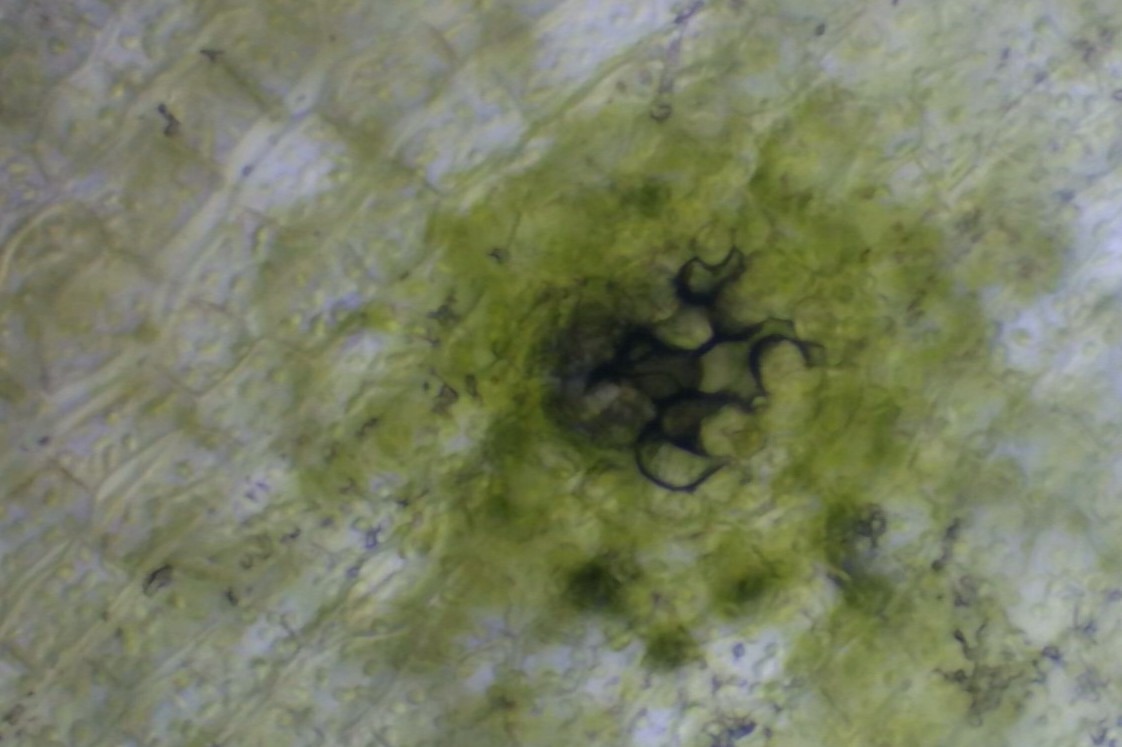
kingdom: Plantae
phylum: Bryophyta
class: Bryopsida
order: Orthotrichales
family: Orthotrichaceae
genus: Orthotrichum
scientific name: Orthotrichum anomalum
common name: Mørk furehætte
